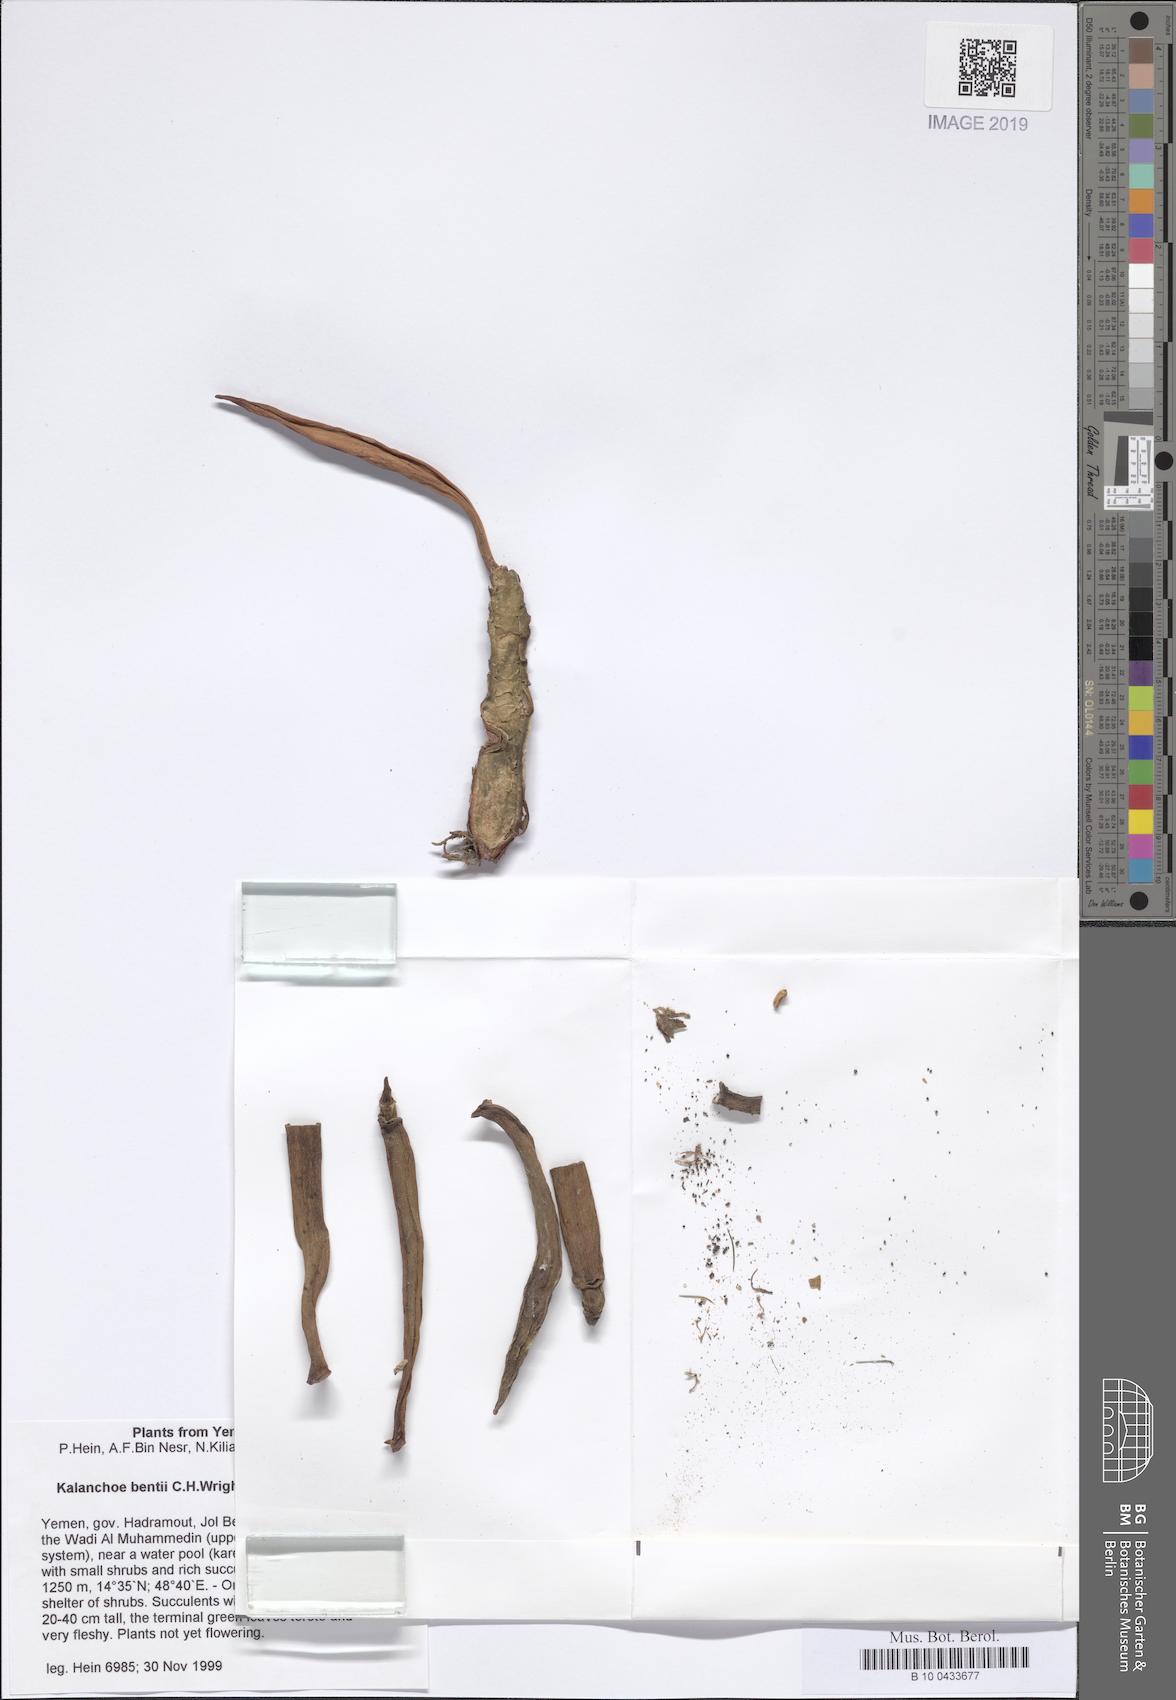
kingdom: Plantae
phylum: Tracheophyta
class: Magnoliopsida
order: Saxifragales
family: Crassulaceae
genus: Kalanchoe
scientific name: Kalanchoe bentii
